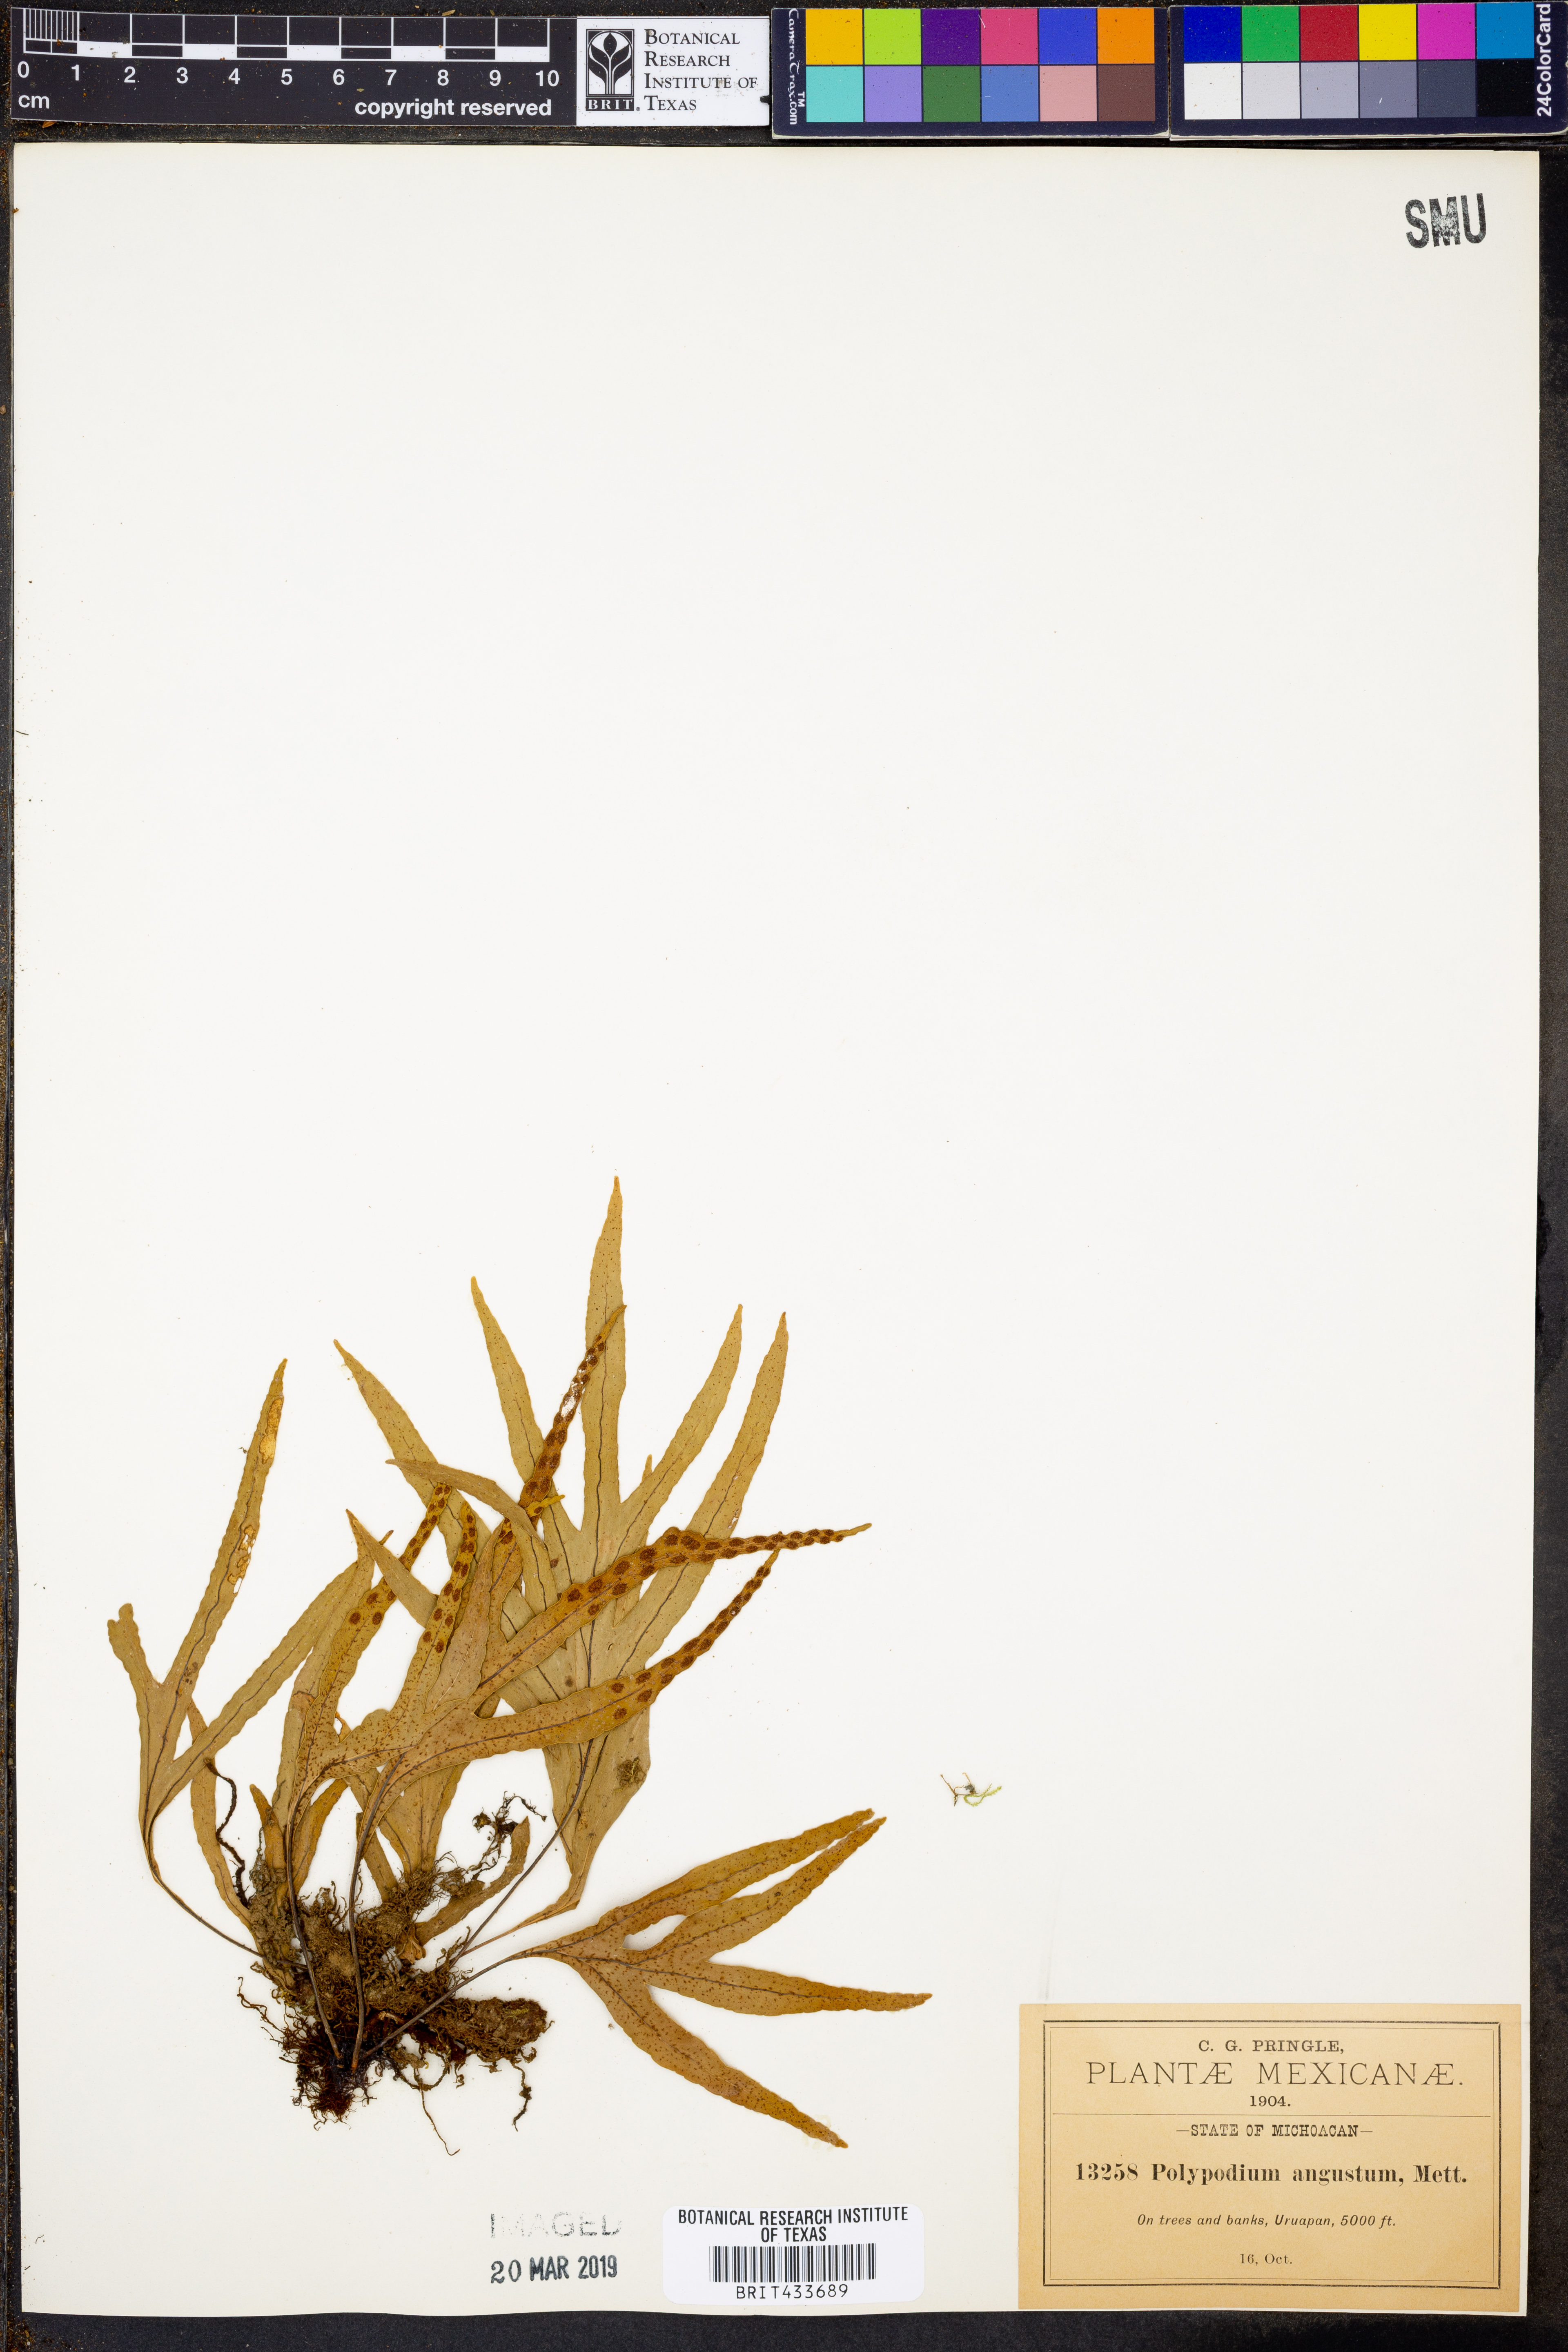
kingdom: Plantae
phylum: Tracheophyta
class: Polypodiopsida
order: Polypodiales
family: Polypodiaceae
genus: Pleopeltis
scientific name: Pleopeltis angusta
